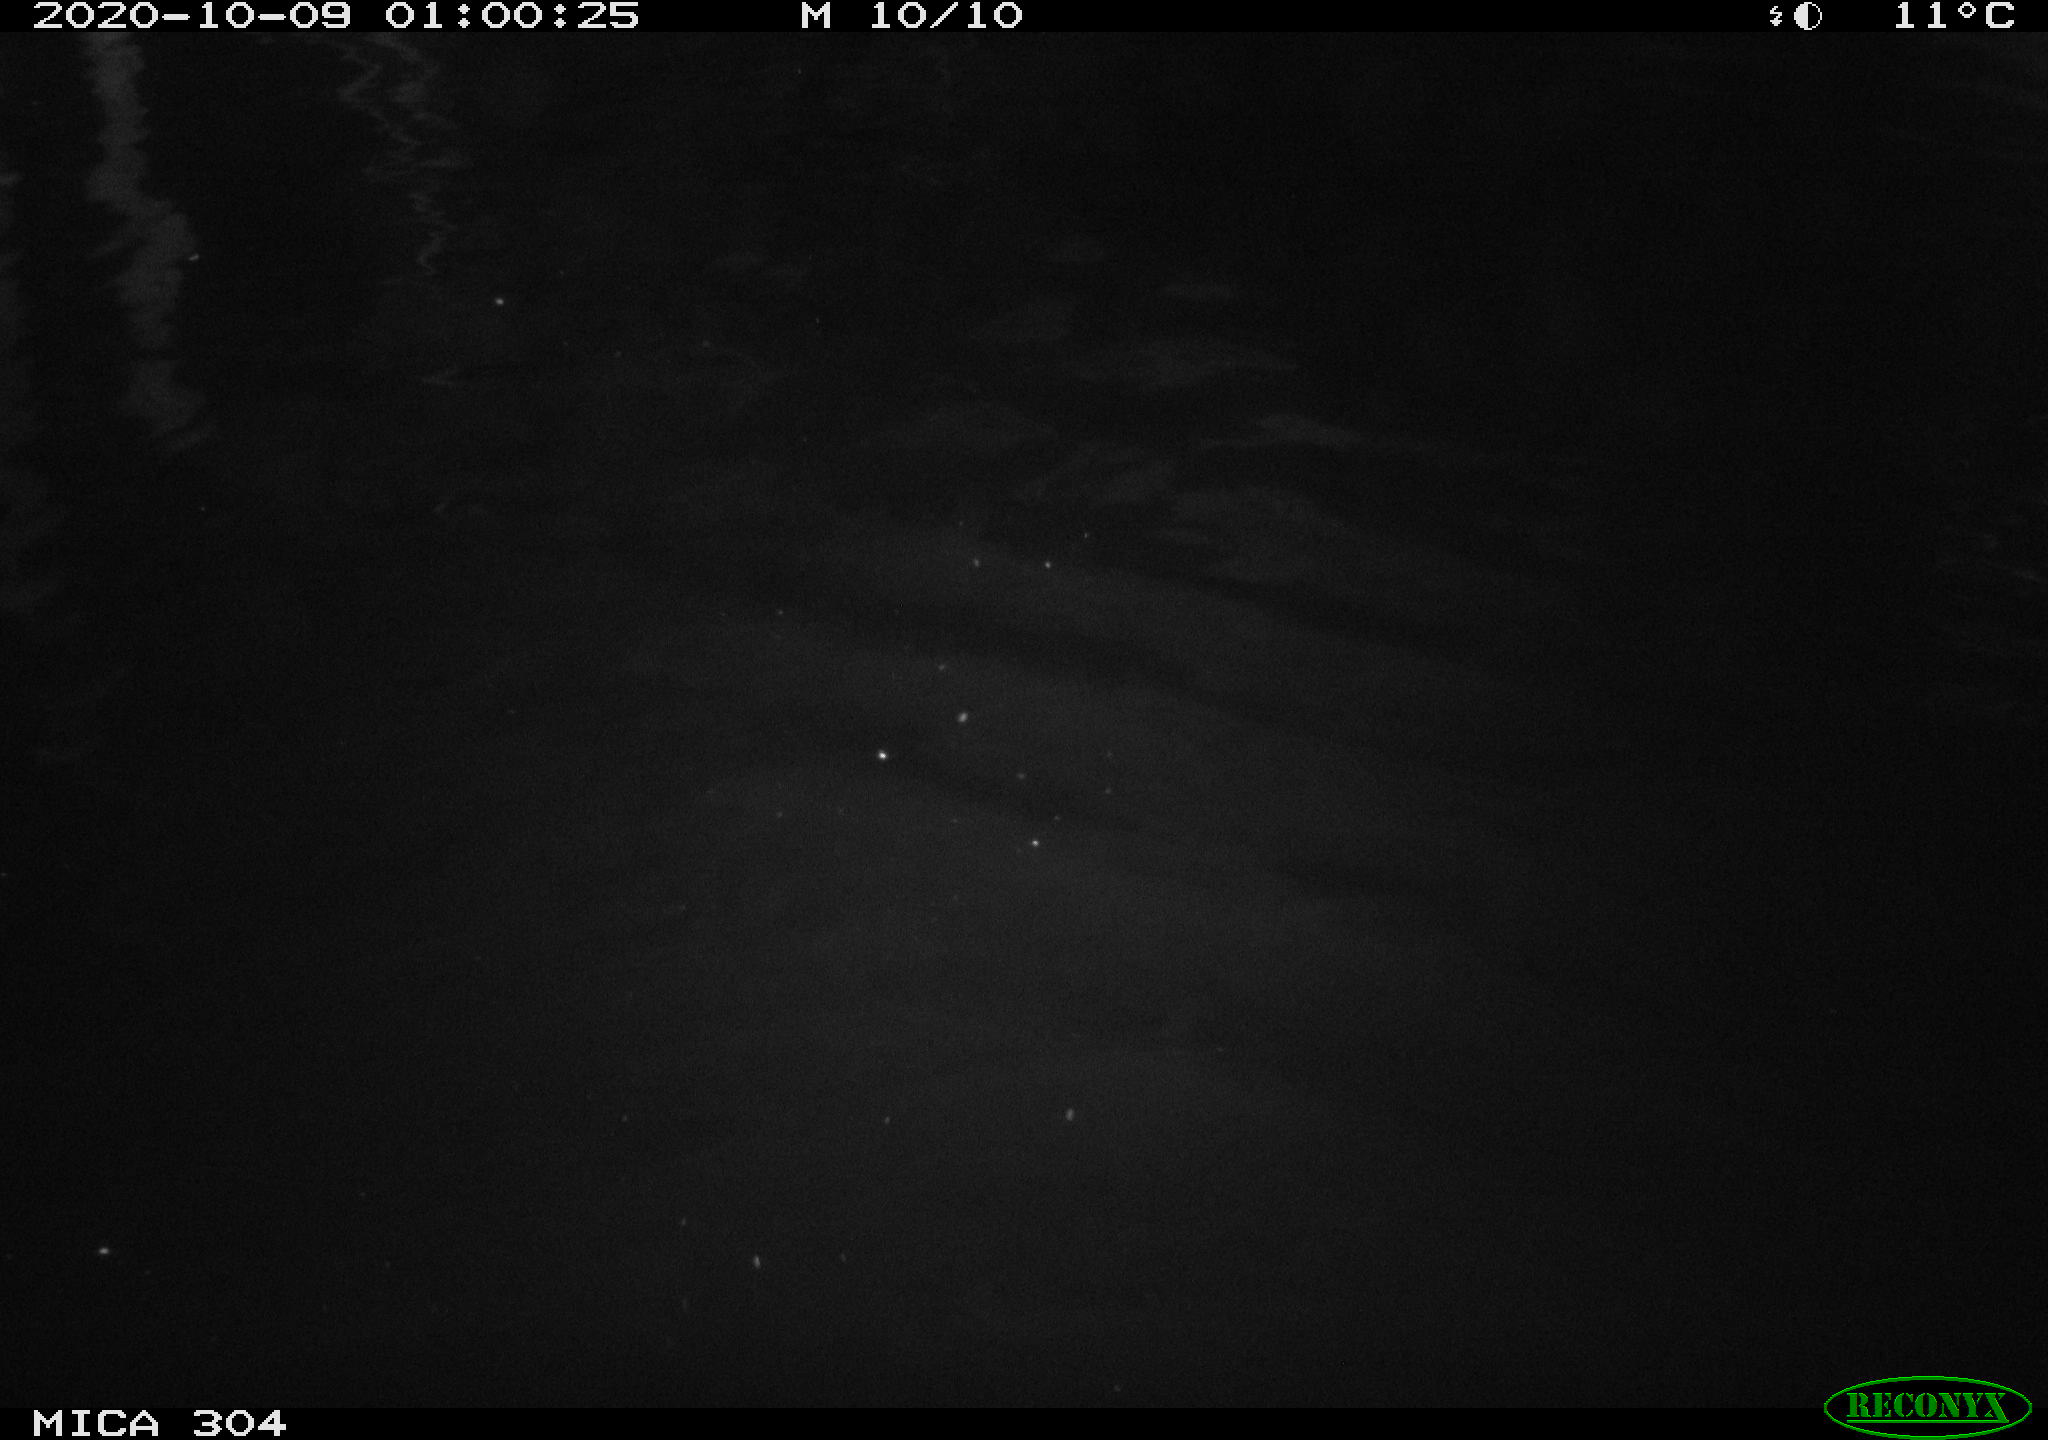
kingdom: Animalia
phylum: Chordata
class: Mammalia
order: Rodentia
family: Cricetidae
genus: Ondatra
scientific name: Ondatra zibethicus
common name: Muskrat
